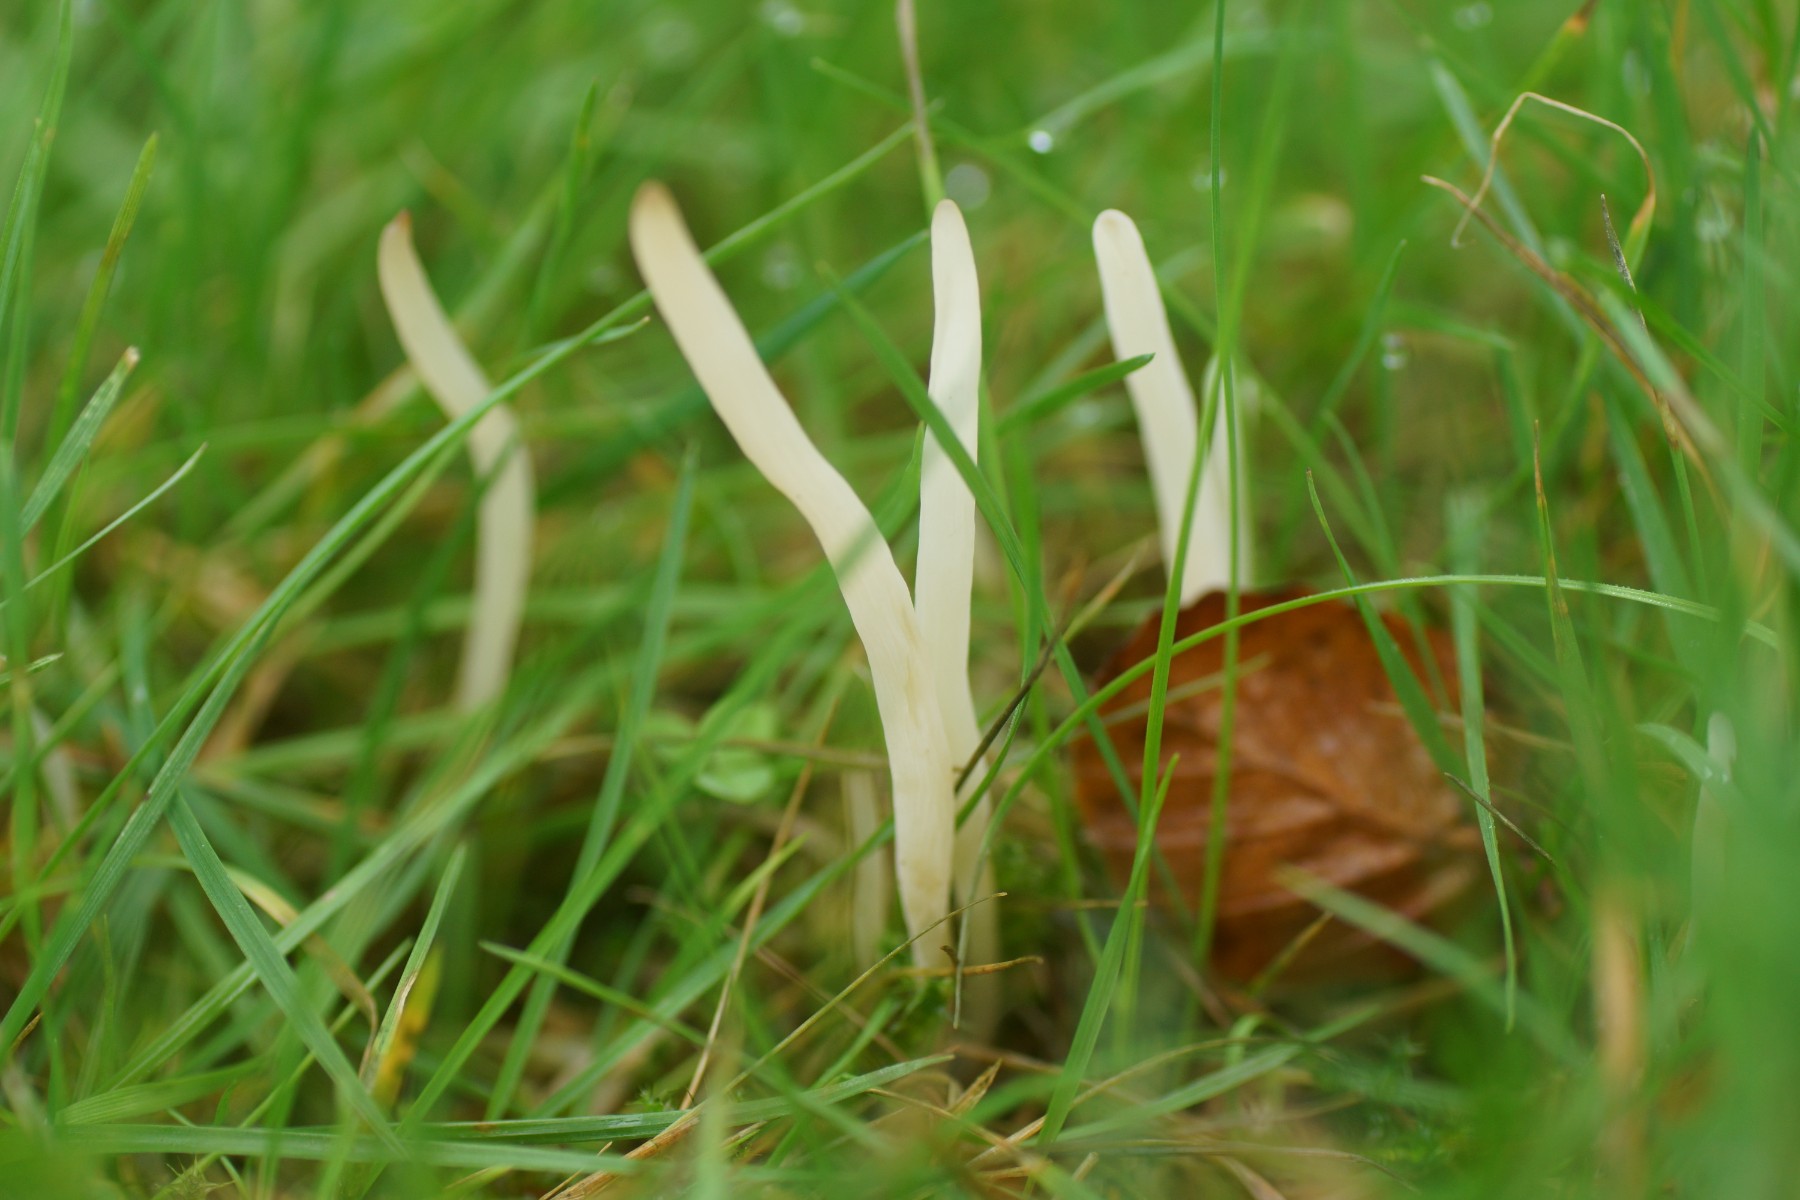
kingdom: Fungi
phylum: Basidiomycota
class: Agaricomycetes
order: Agaricales
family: Clavariaceae
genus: Clavaria
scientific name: Clavaria falcata
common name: hvid køllesvamp
